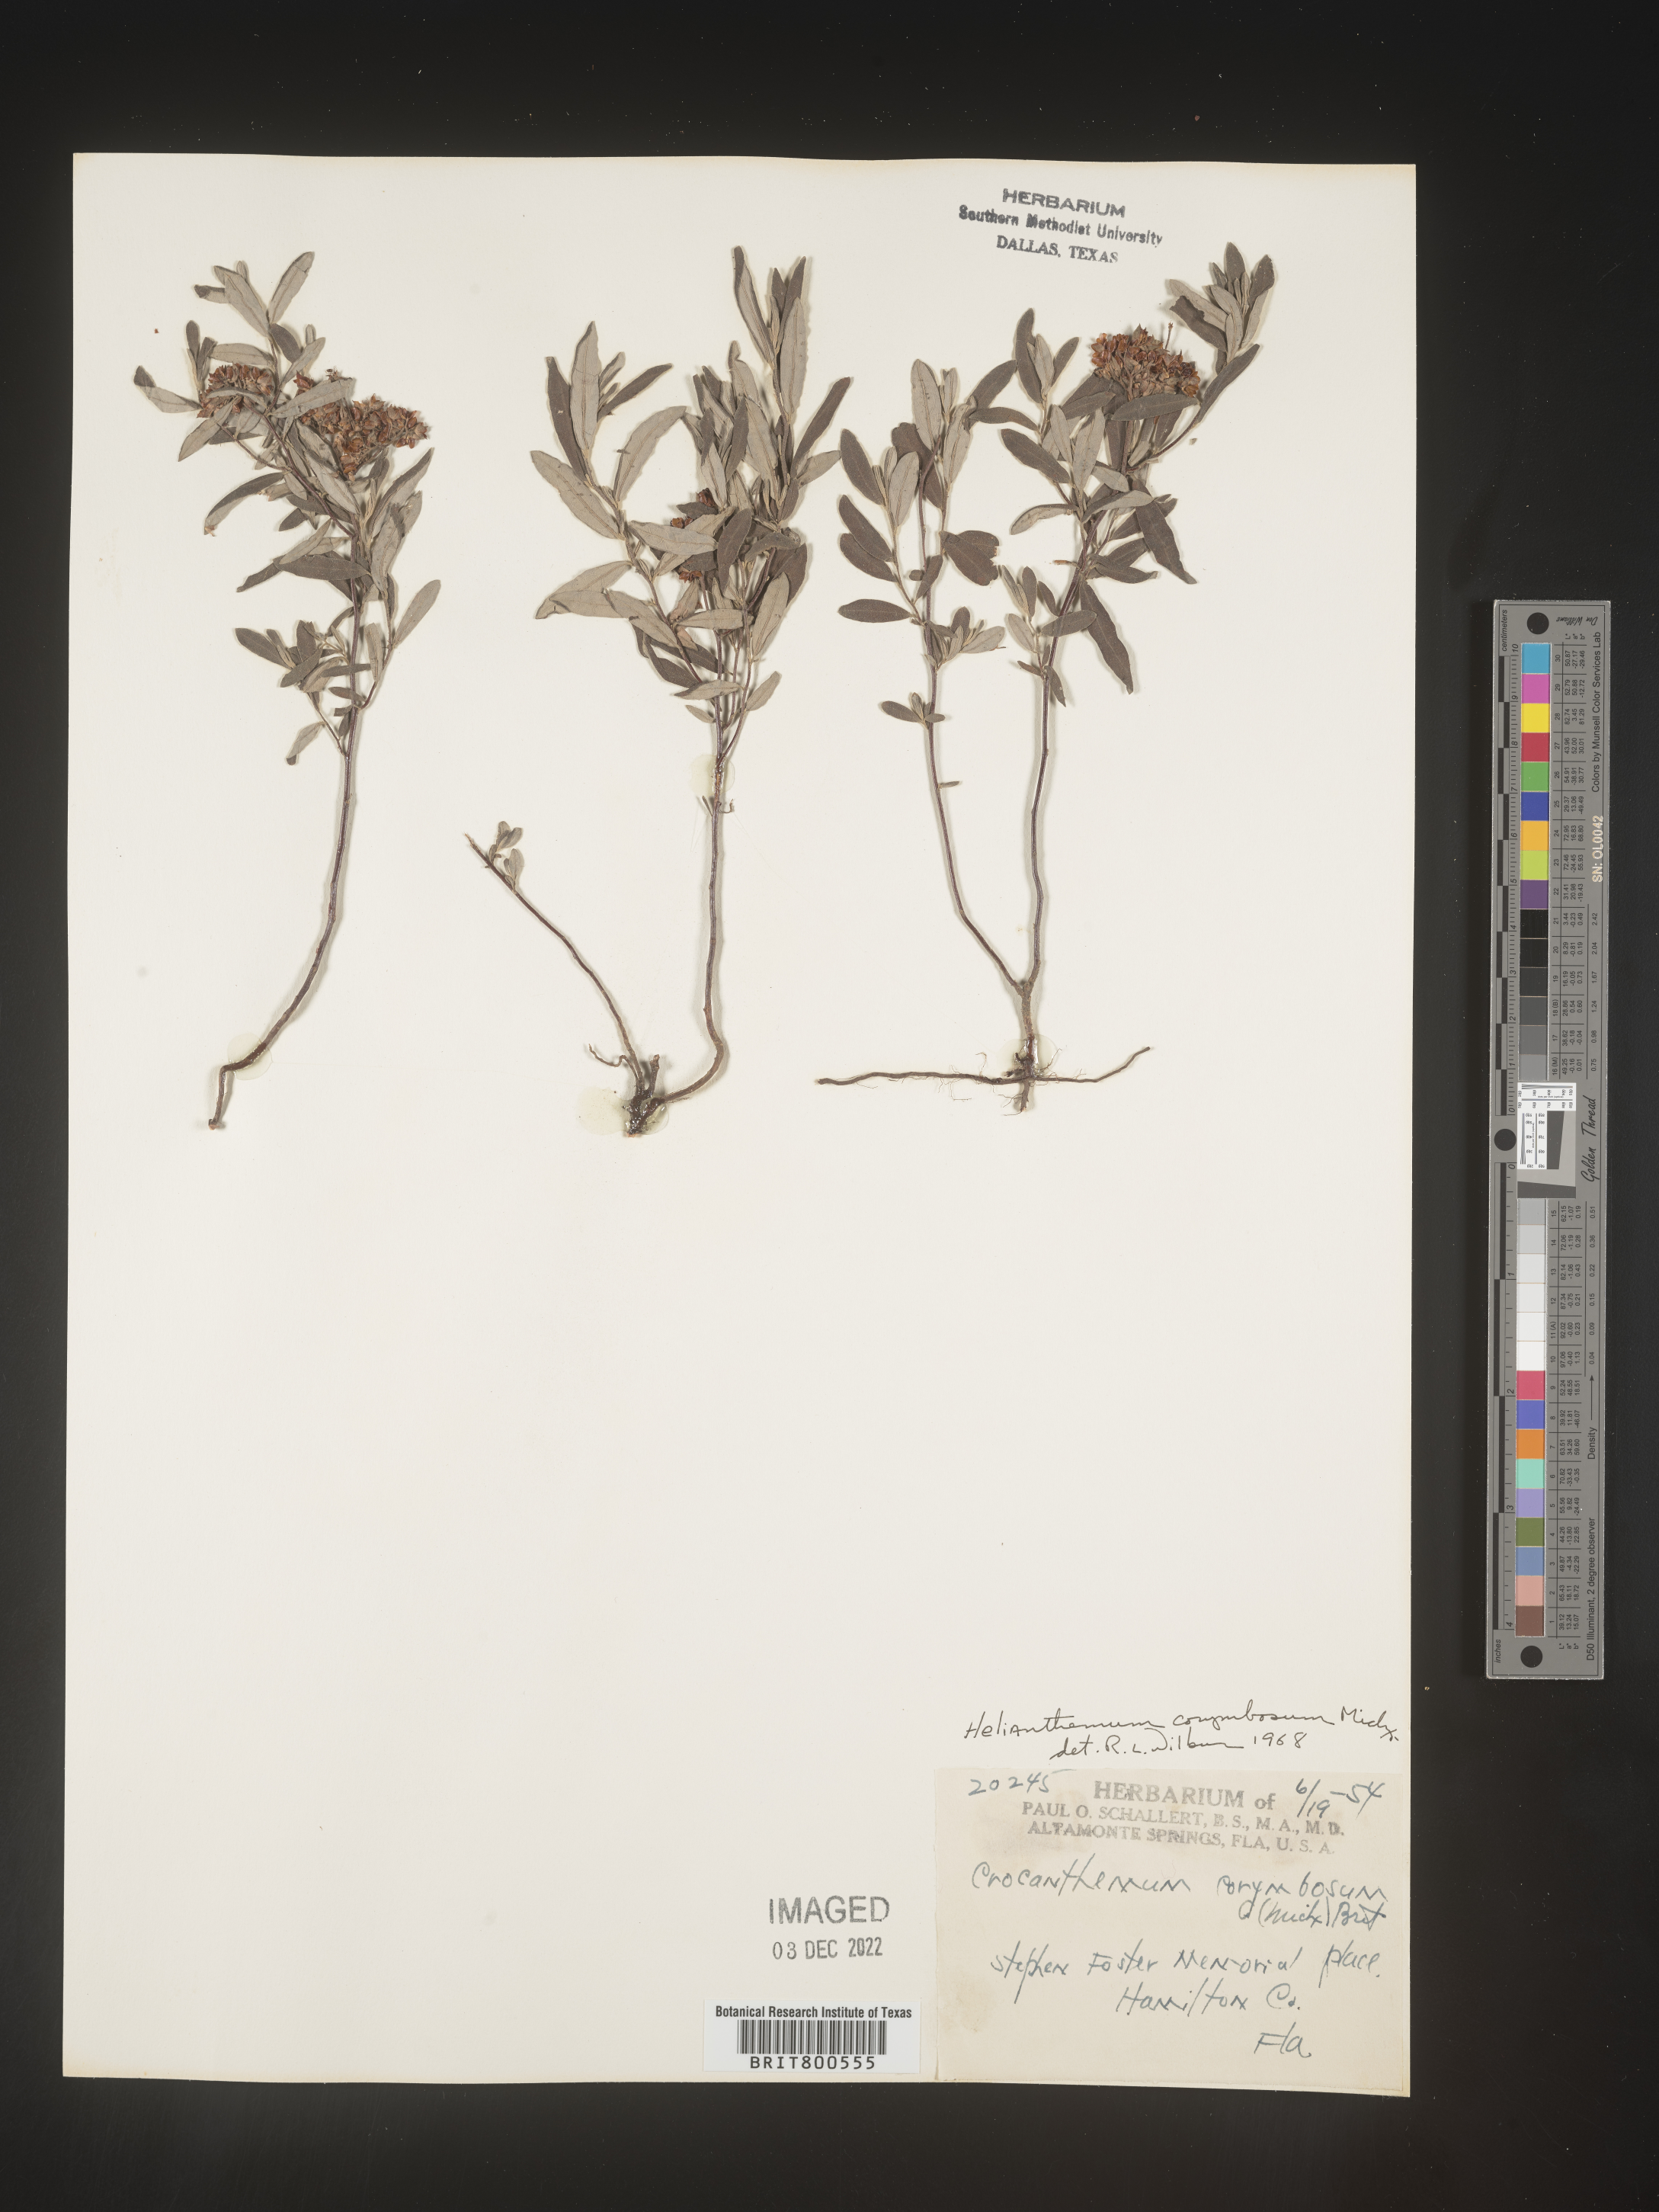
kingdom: Plantae
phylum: Tracheophyta
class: Magnoliopsida
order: Malvales
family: Cistaceae
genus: Crocanthemum
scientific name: Crocanthemum corymbosum
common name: Pinebarren sun-rose
